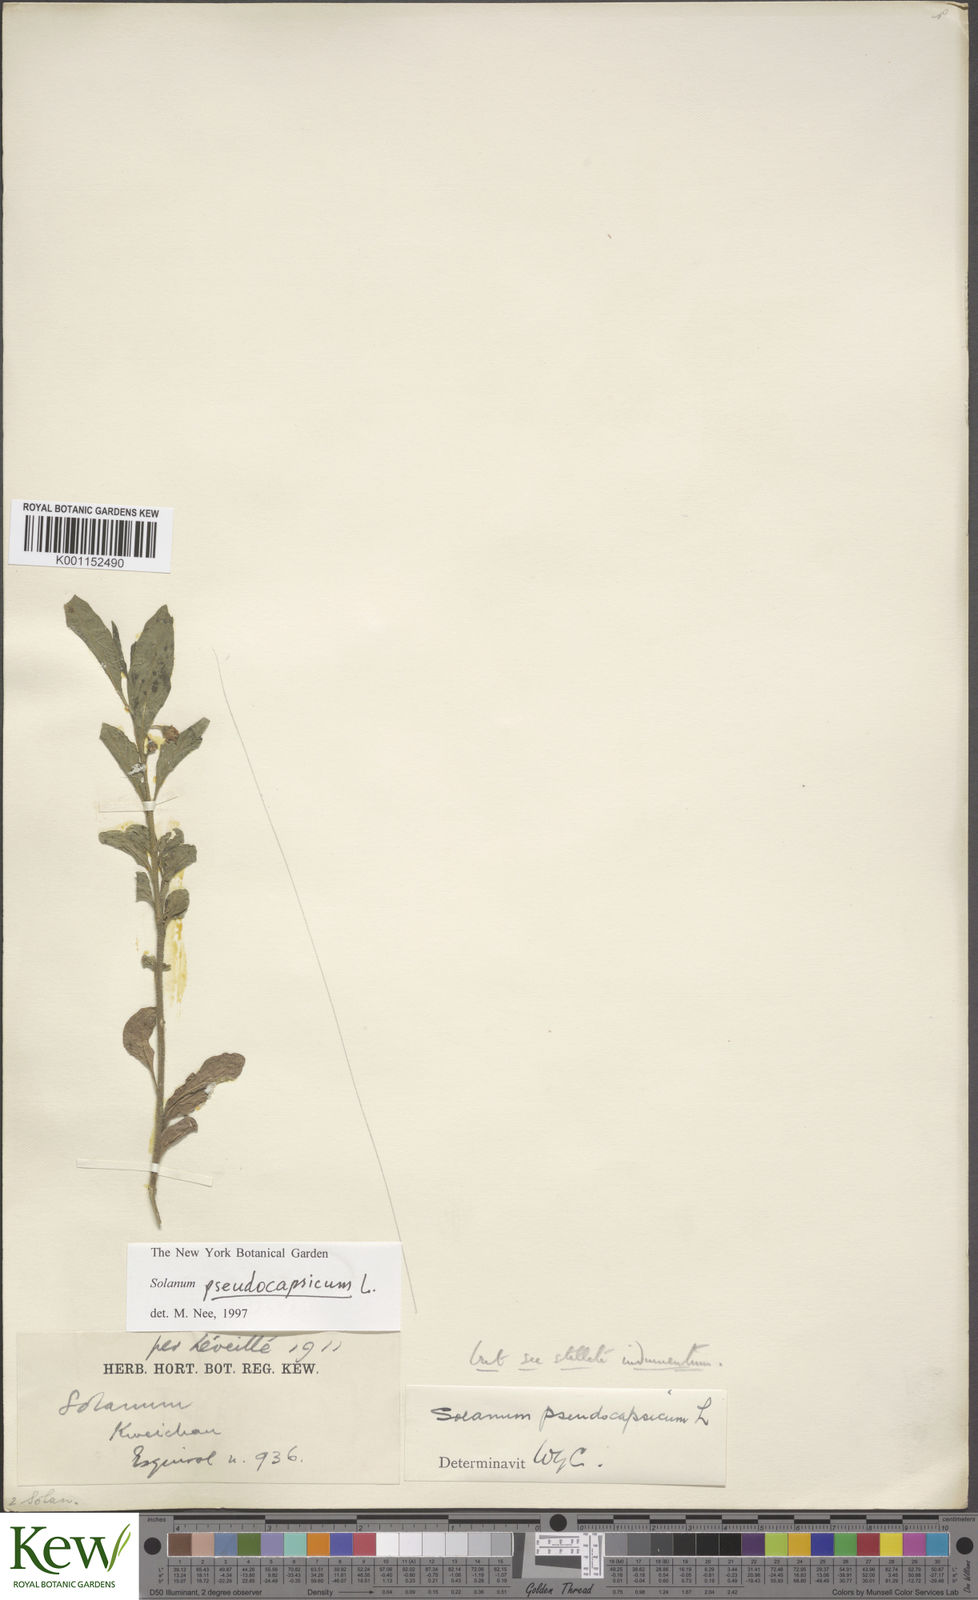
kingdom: Plantae
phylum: Tracheophyta
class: Magnoliopsida
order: Solanales
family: Solanaceae
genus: Solanum
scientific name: Solanum pseudocapsicum
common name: Jerusalem cherry
